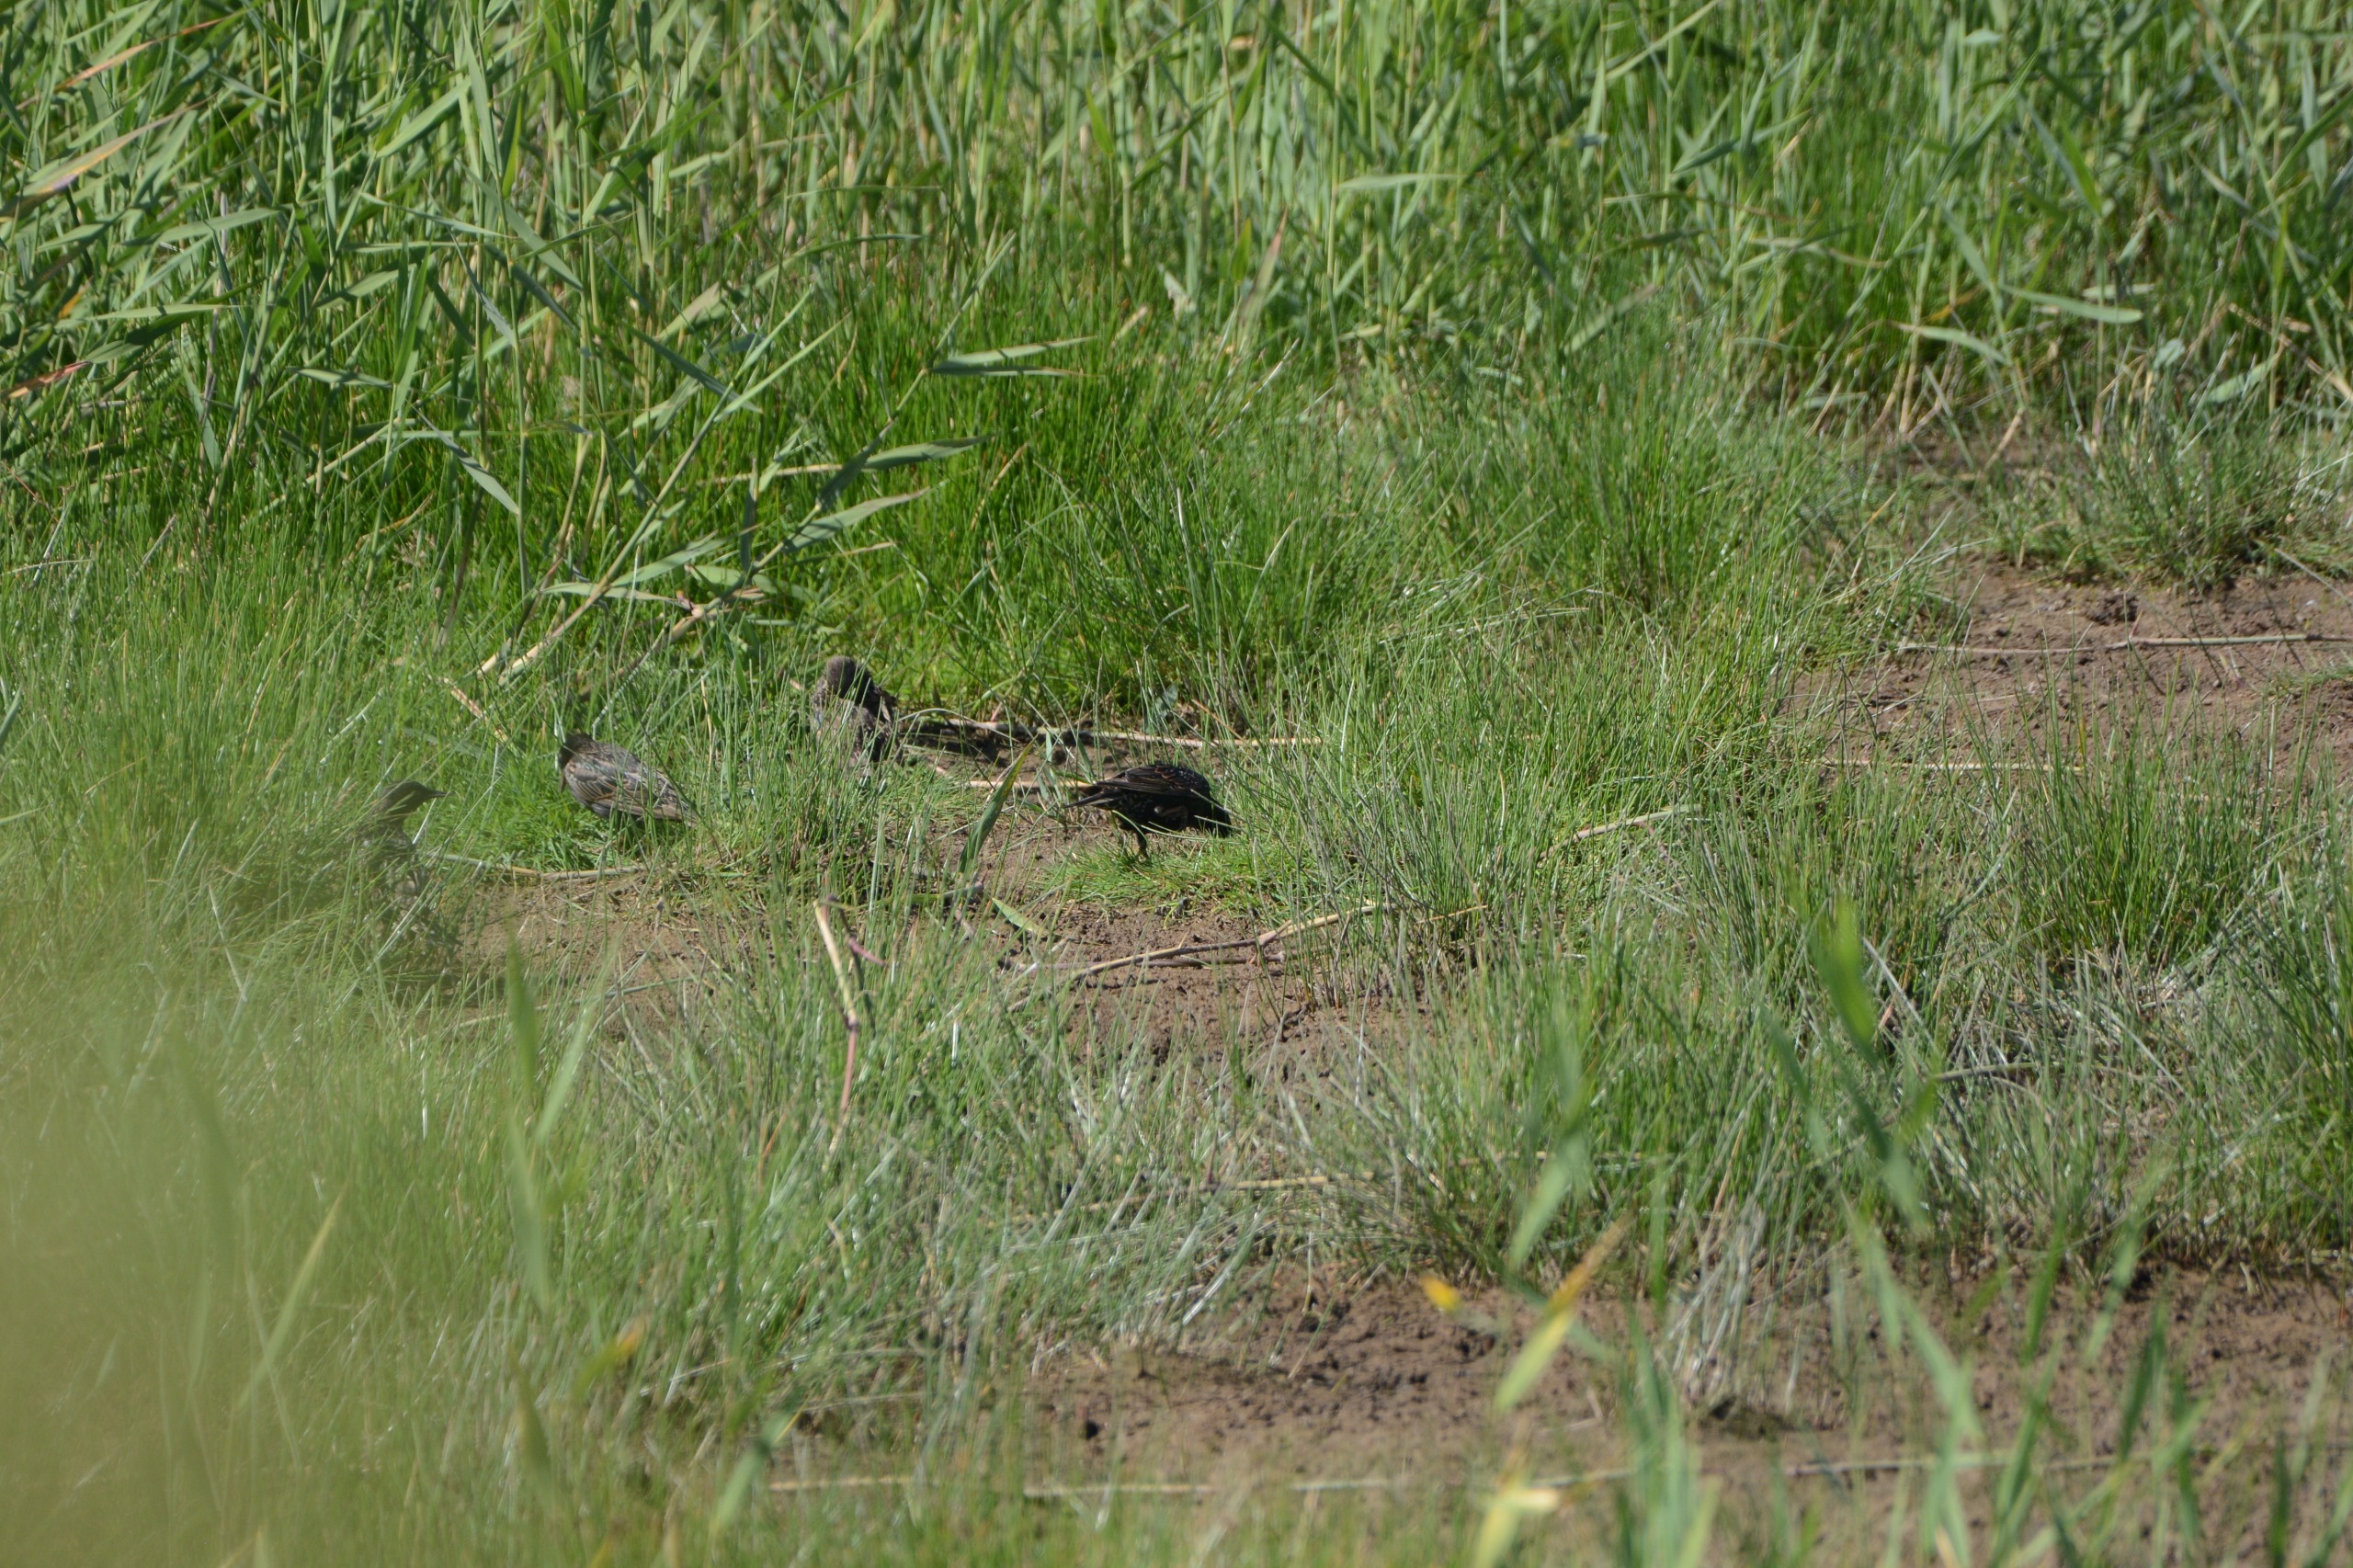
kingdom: Animalia
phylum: Chordata
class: Aves
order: Passeriformes
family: Sturnidae
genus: Sturnus
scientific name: Sturnus vulgaris
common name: Stær
